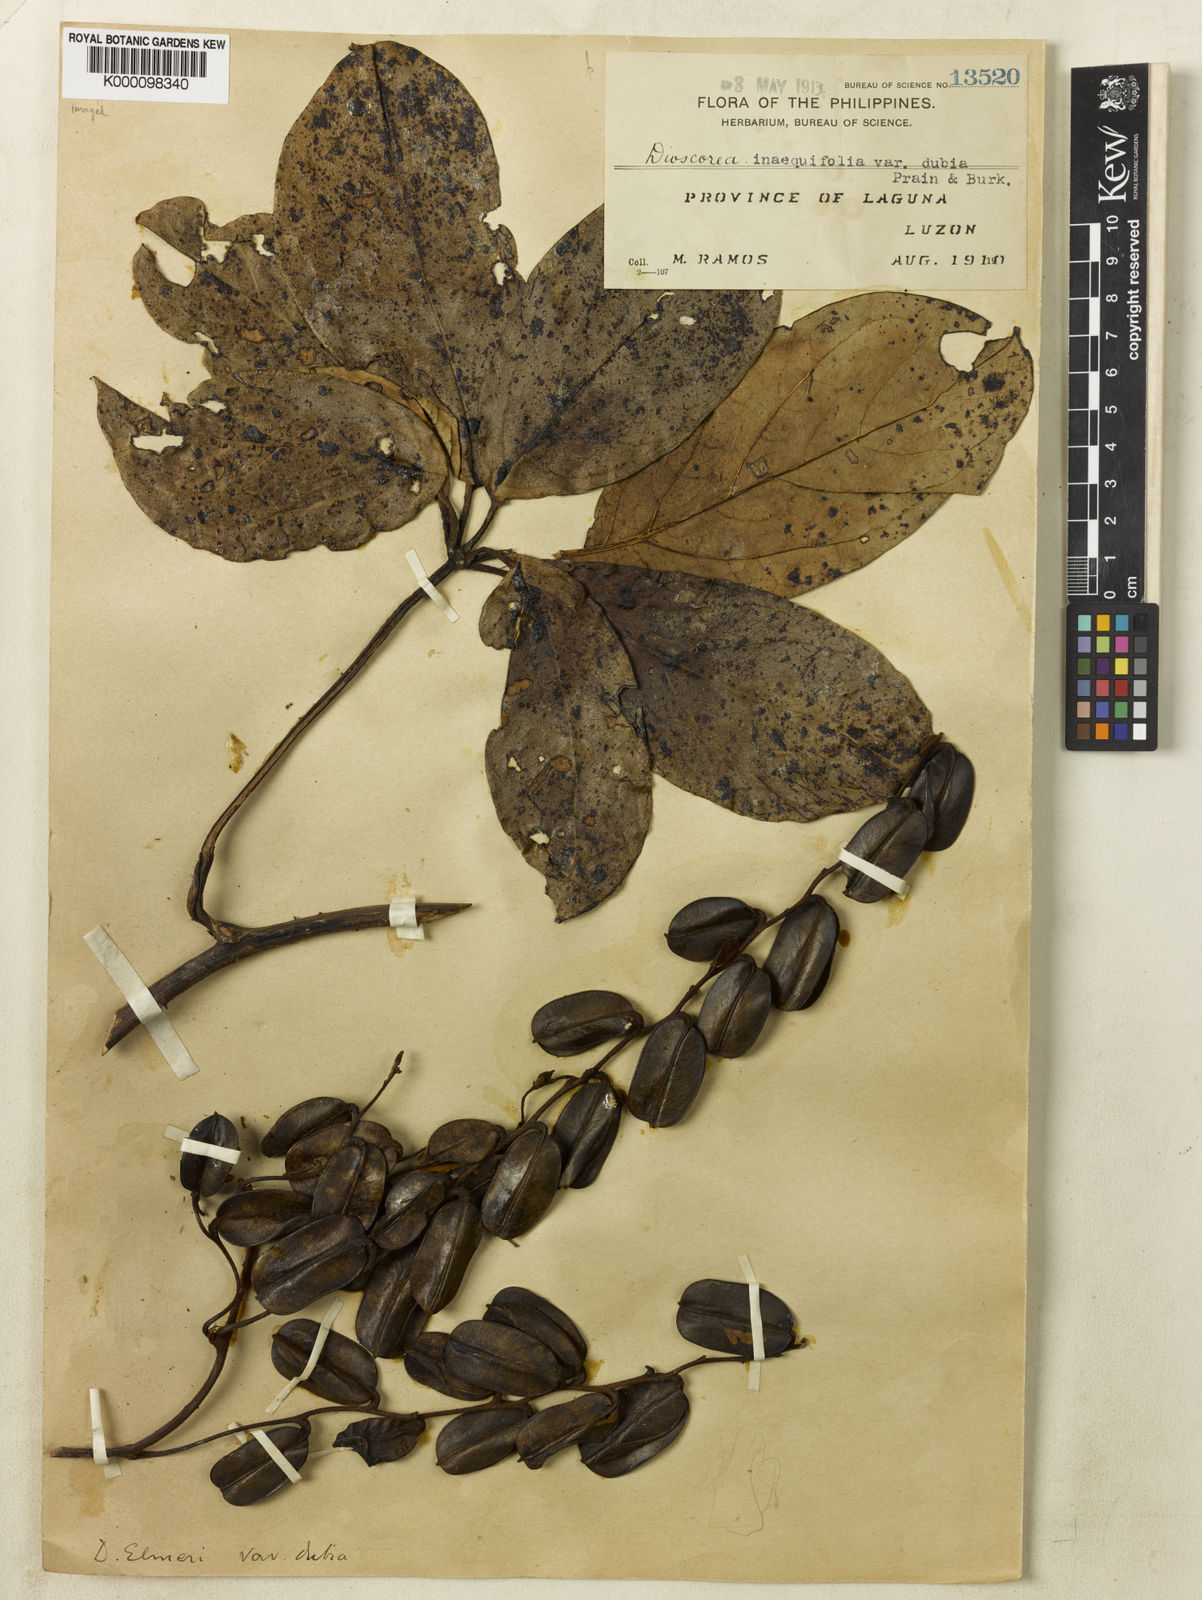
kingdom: Plantae
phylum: Tracheophyta
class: Liliopsida
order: Dioscoreales
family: Dioscoreaceae
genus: Dioscorea
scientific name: Dioscorea cumingii
